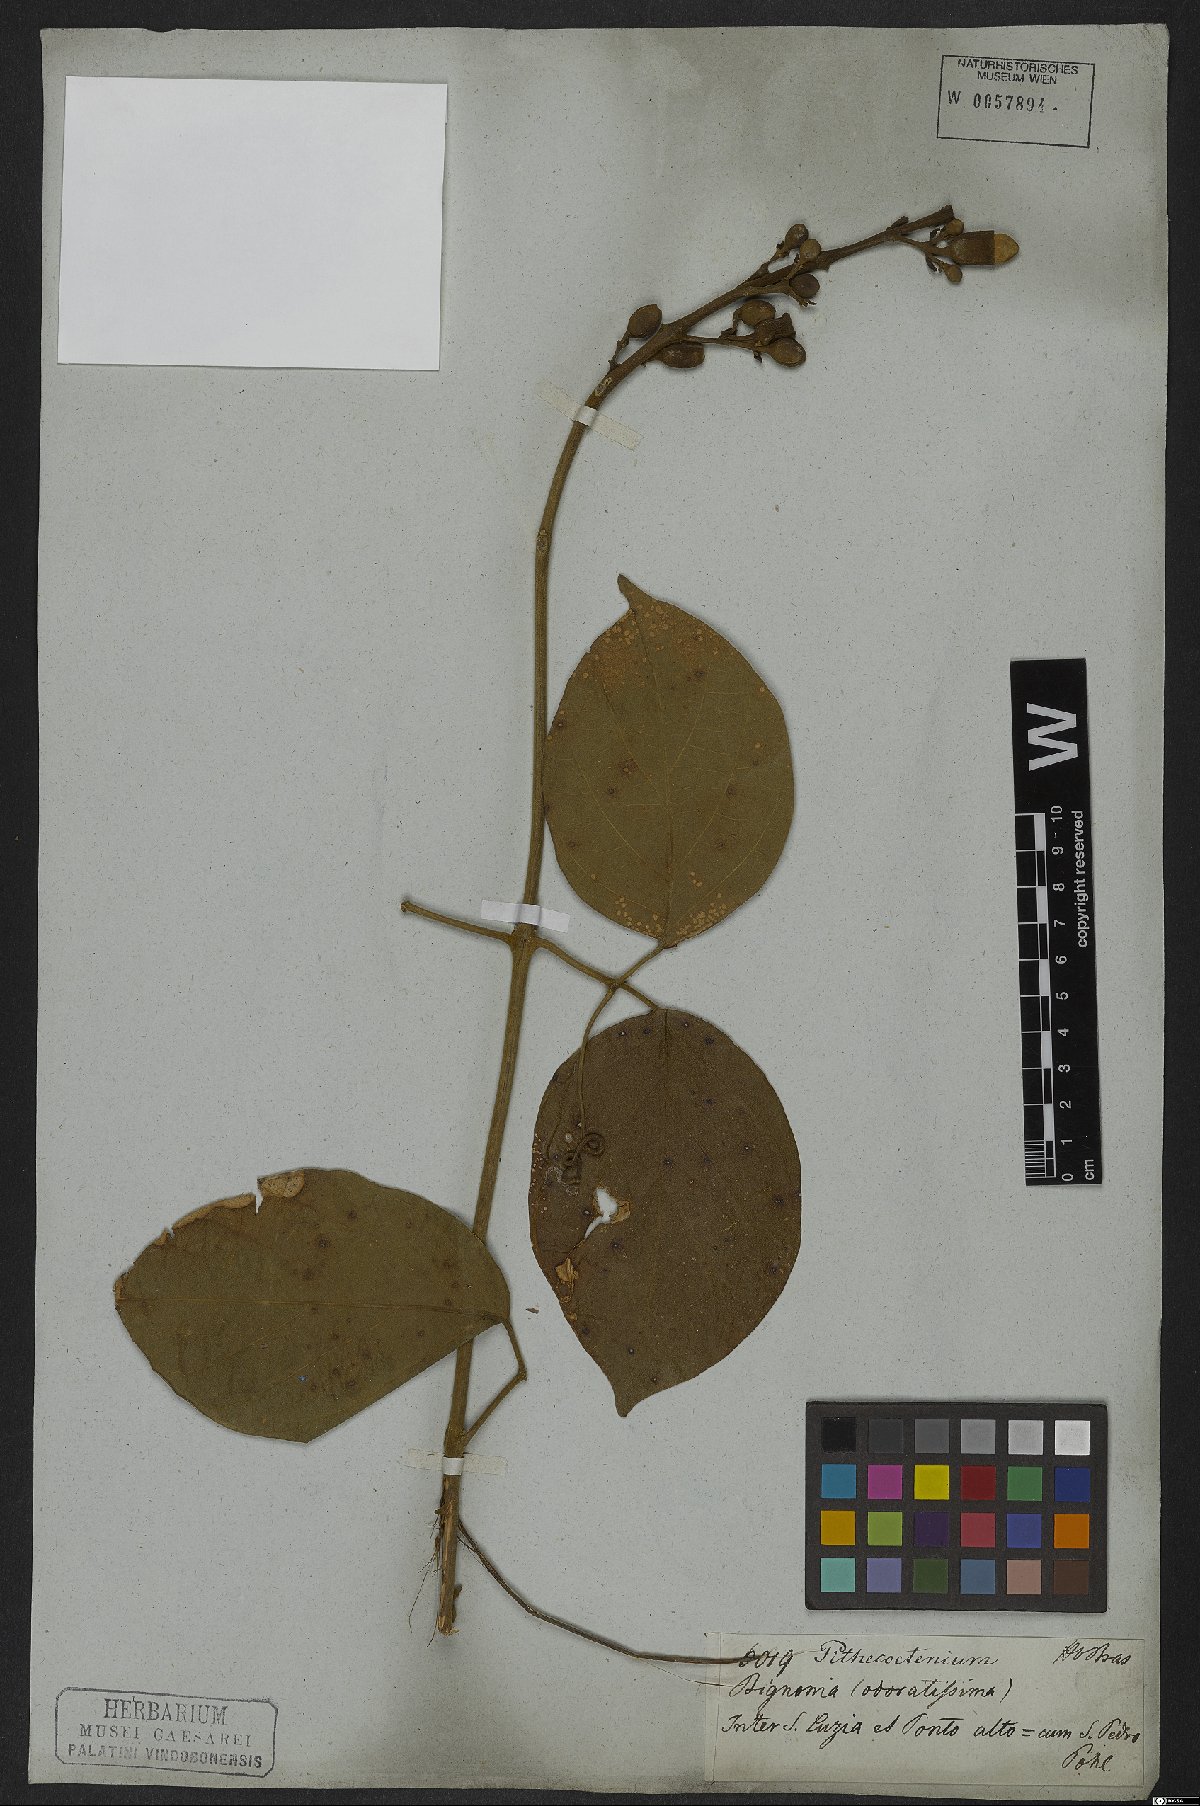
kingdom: Plantae
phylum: Tracheophyta
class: Magnoliopsida
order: Lamiales
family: Bignoniaceae
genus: Amphilophium
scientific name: Amphilophium mansoanum
